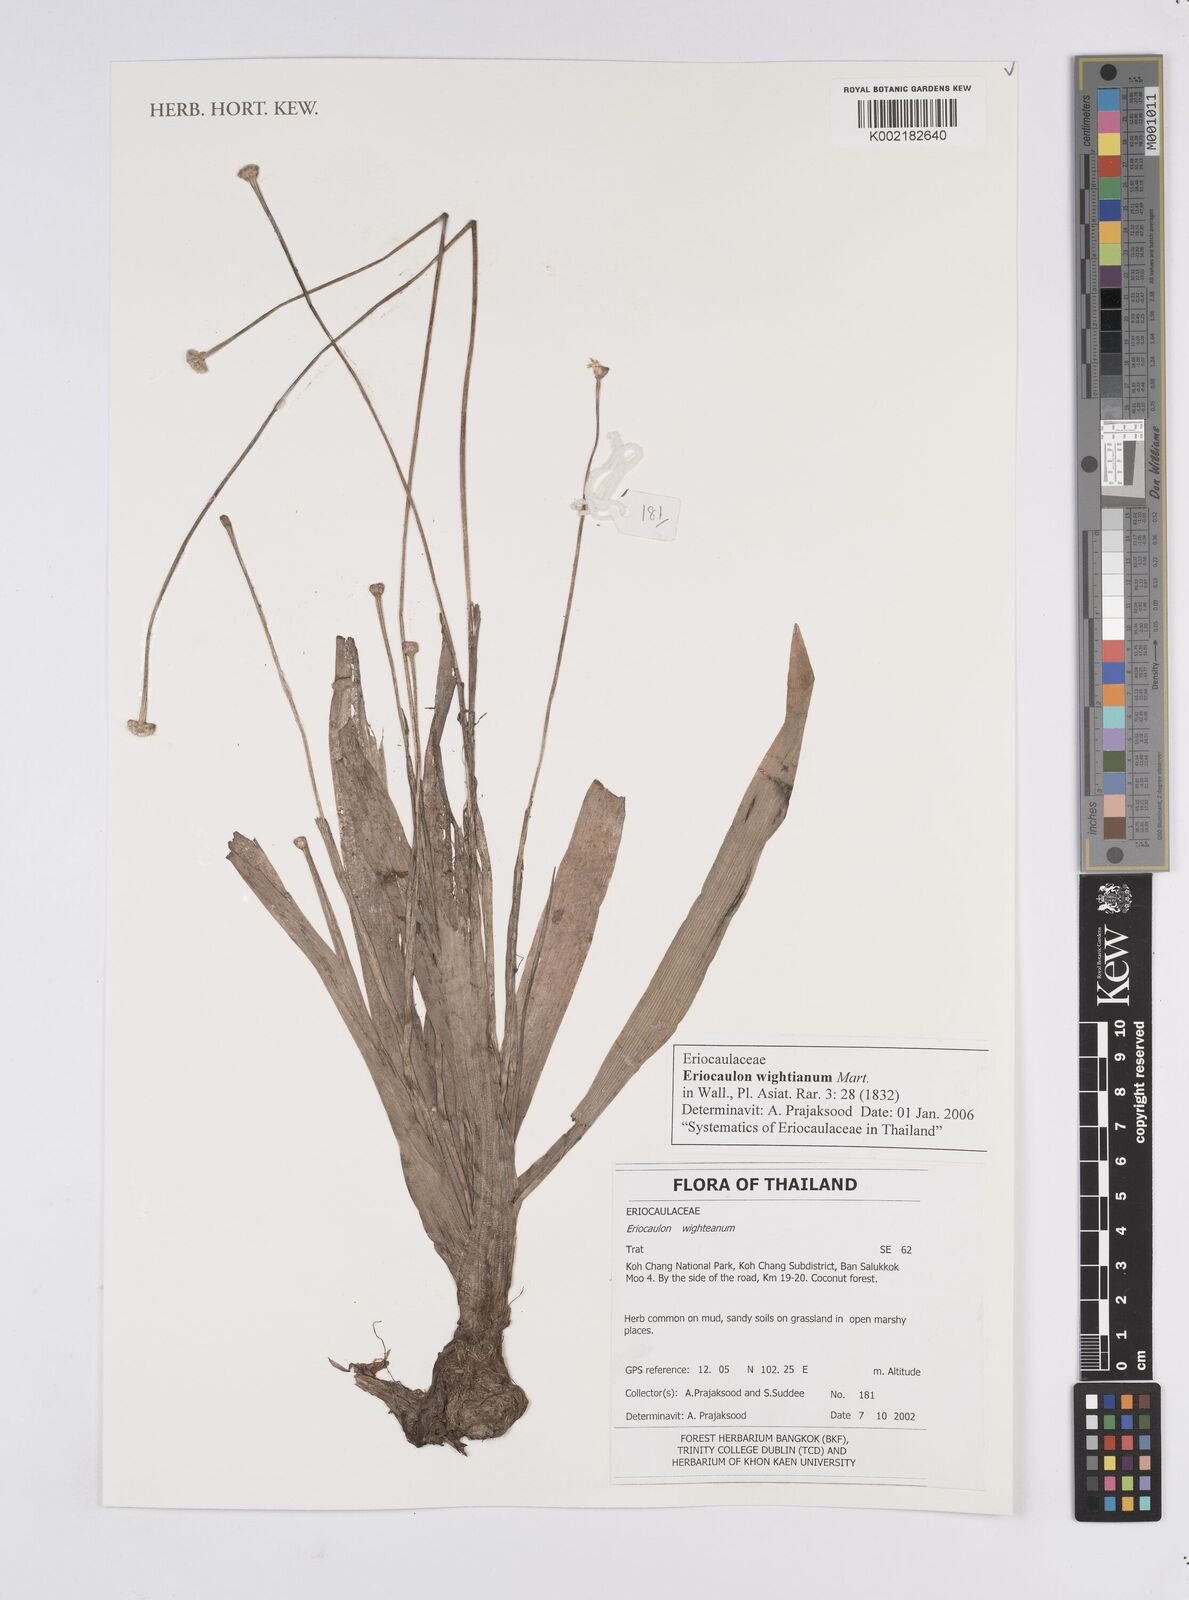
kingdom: Plantae
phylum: Tracheophyta
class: Liliopsida
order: Poales
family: Eriocaulaceae
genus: Eriocaulon
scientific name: Eriocaulon wightianum
